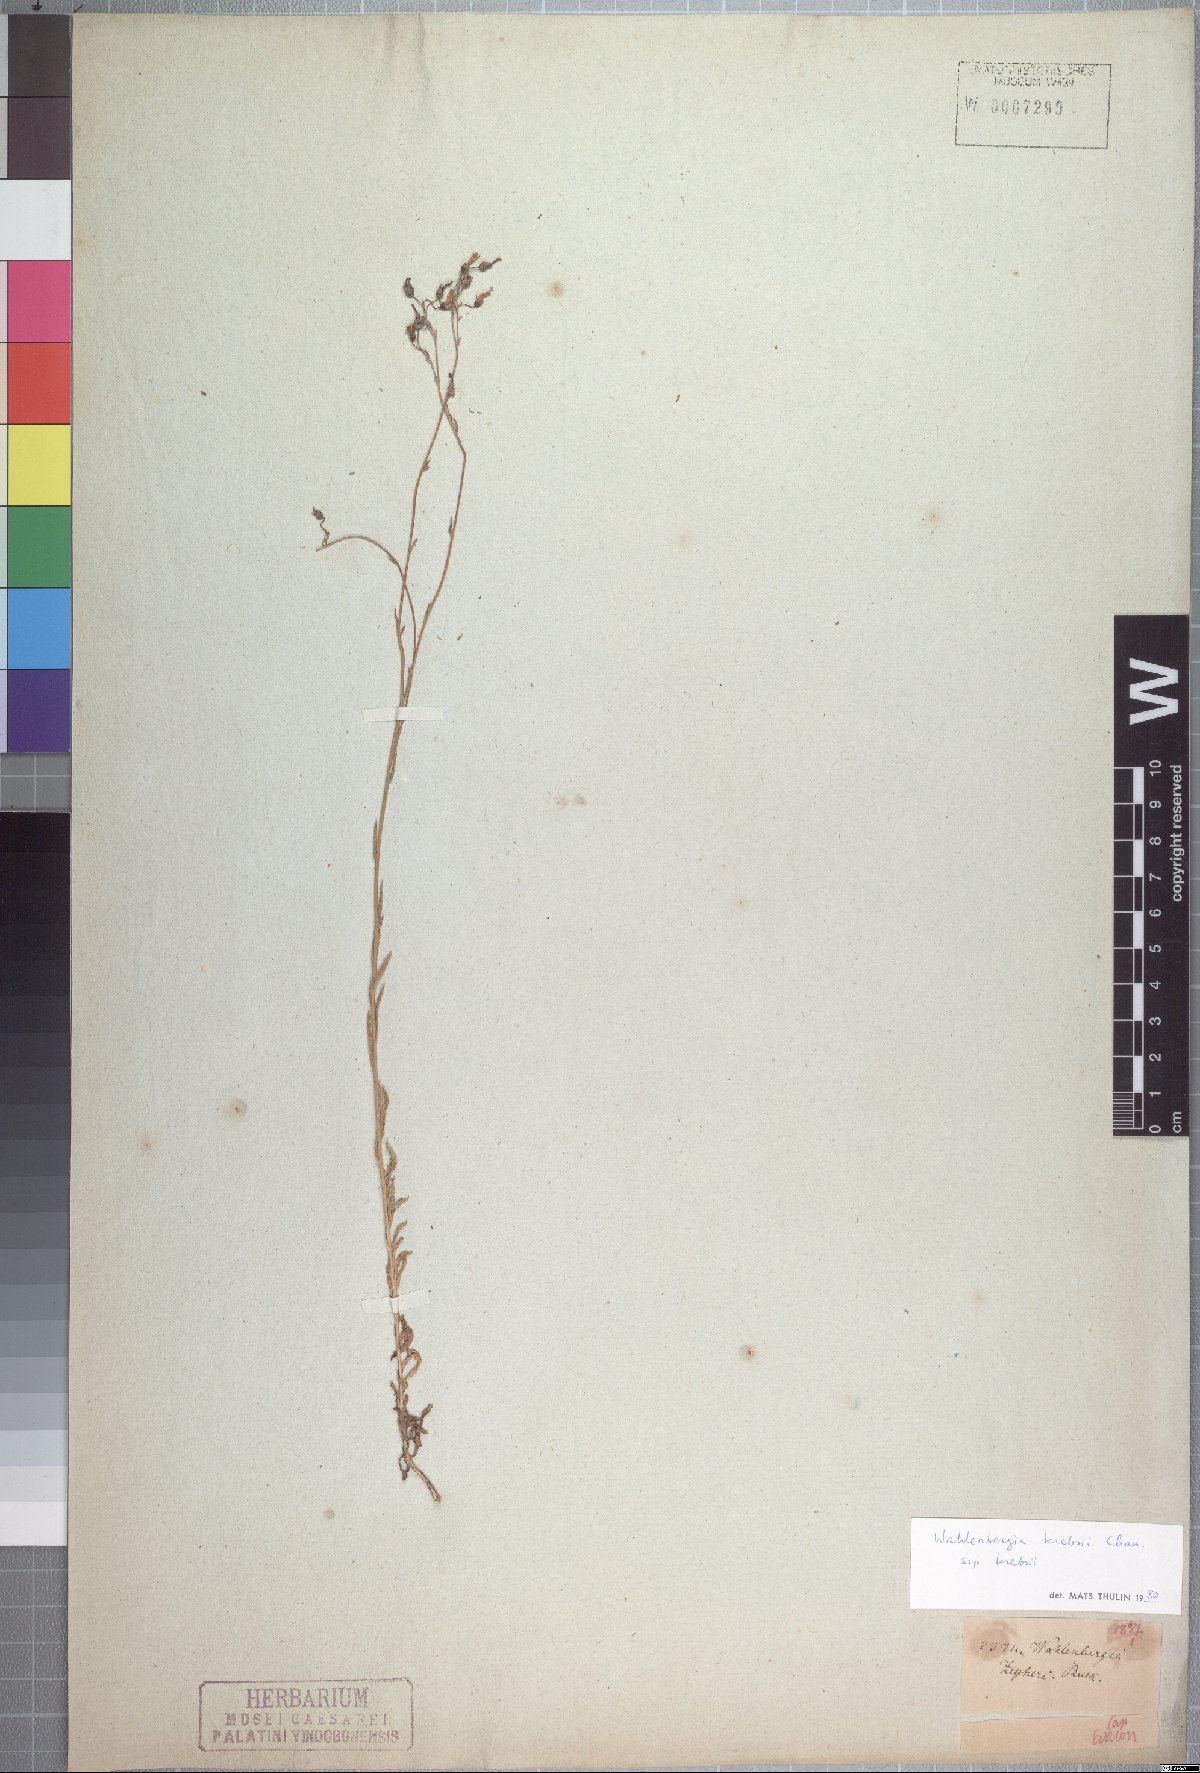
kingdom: Plantae
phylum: Tracheophyta
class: Magnoliopsida
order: Asterales
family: Campanulaceae
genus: Wahlenbergia
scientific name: Wahlenbergia krebsii
